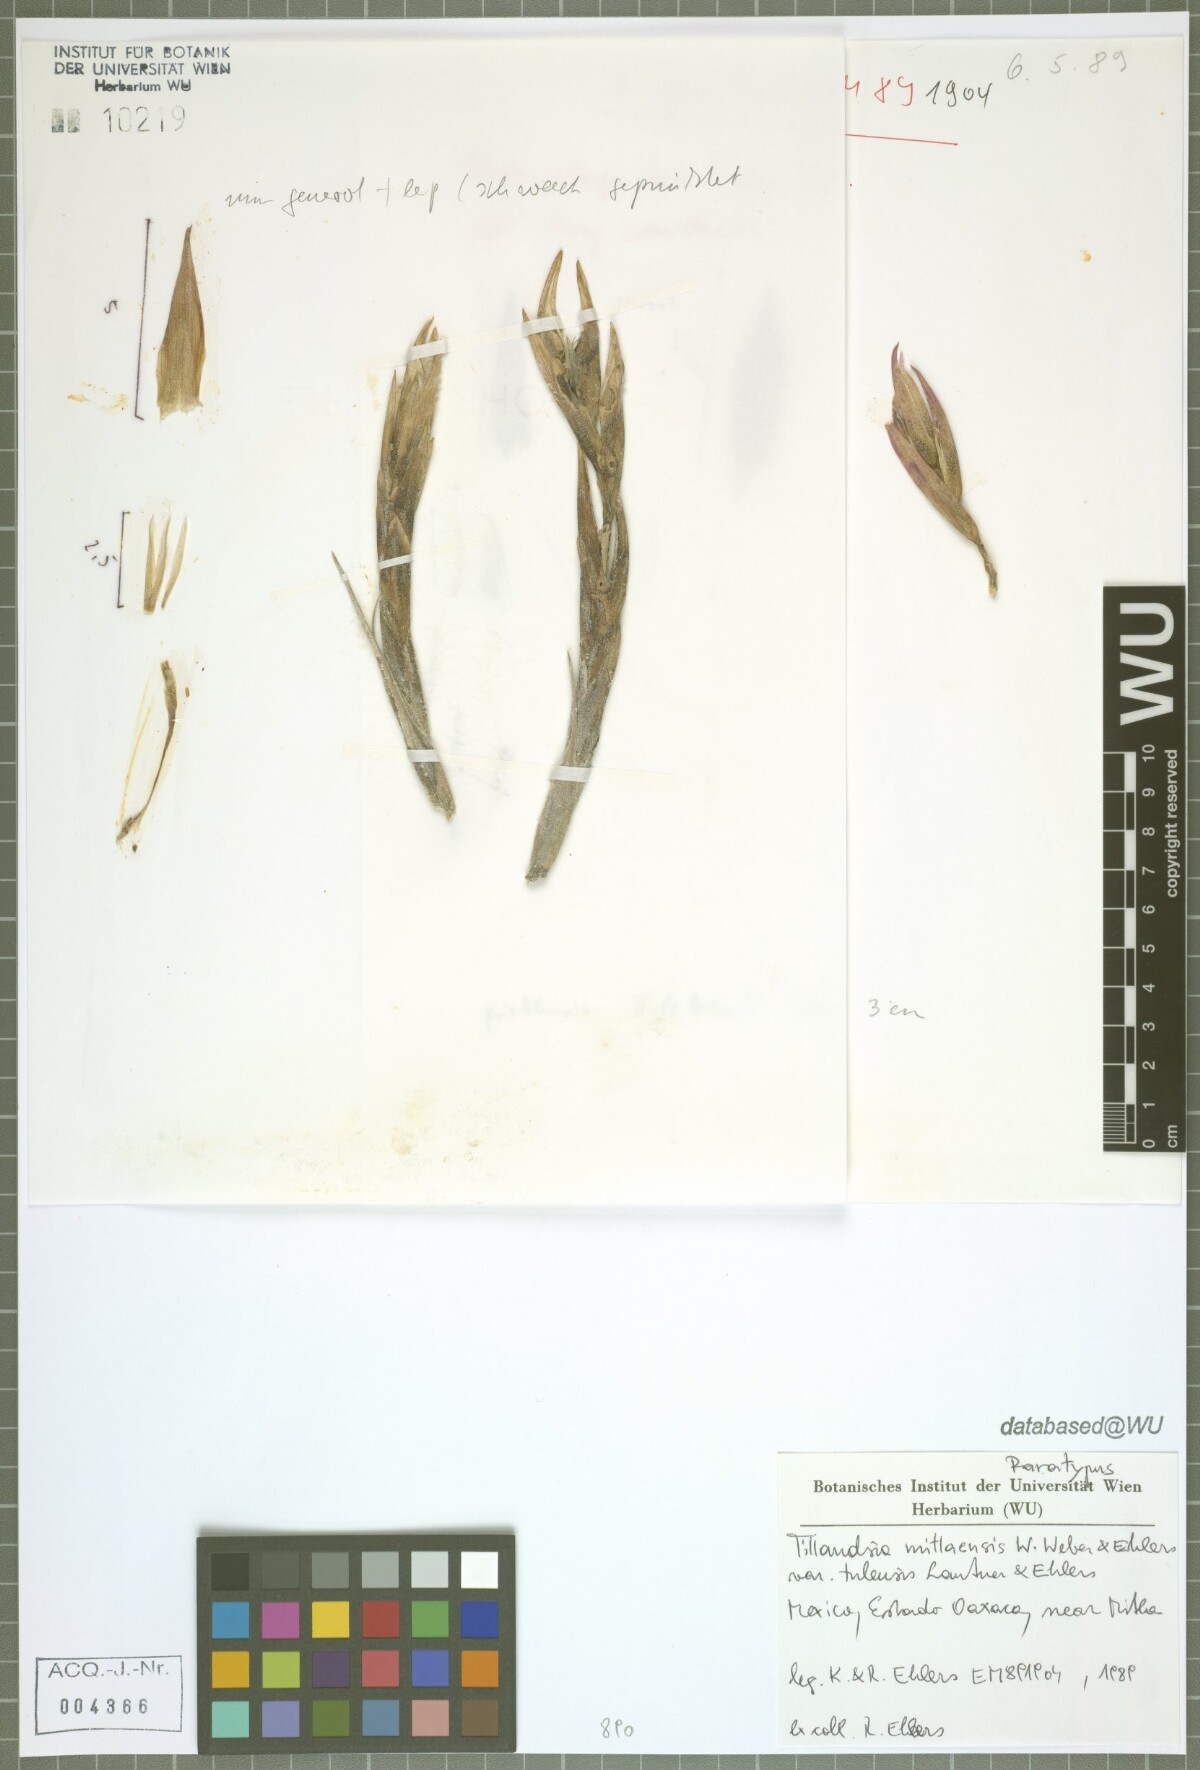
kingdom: Plantae
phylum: Tracheophyta
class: Liliopsida
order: Poales
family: Bromeliaceae
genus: Tillandsia
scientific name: Tillandsia mitlaensis
